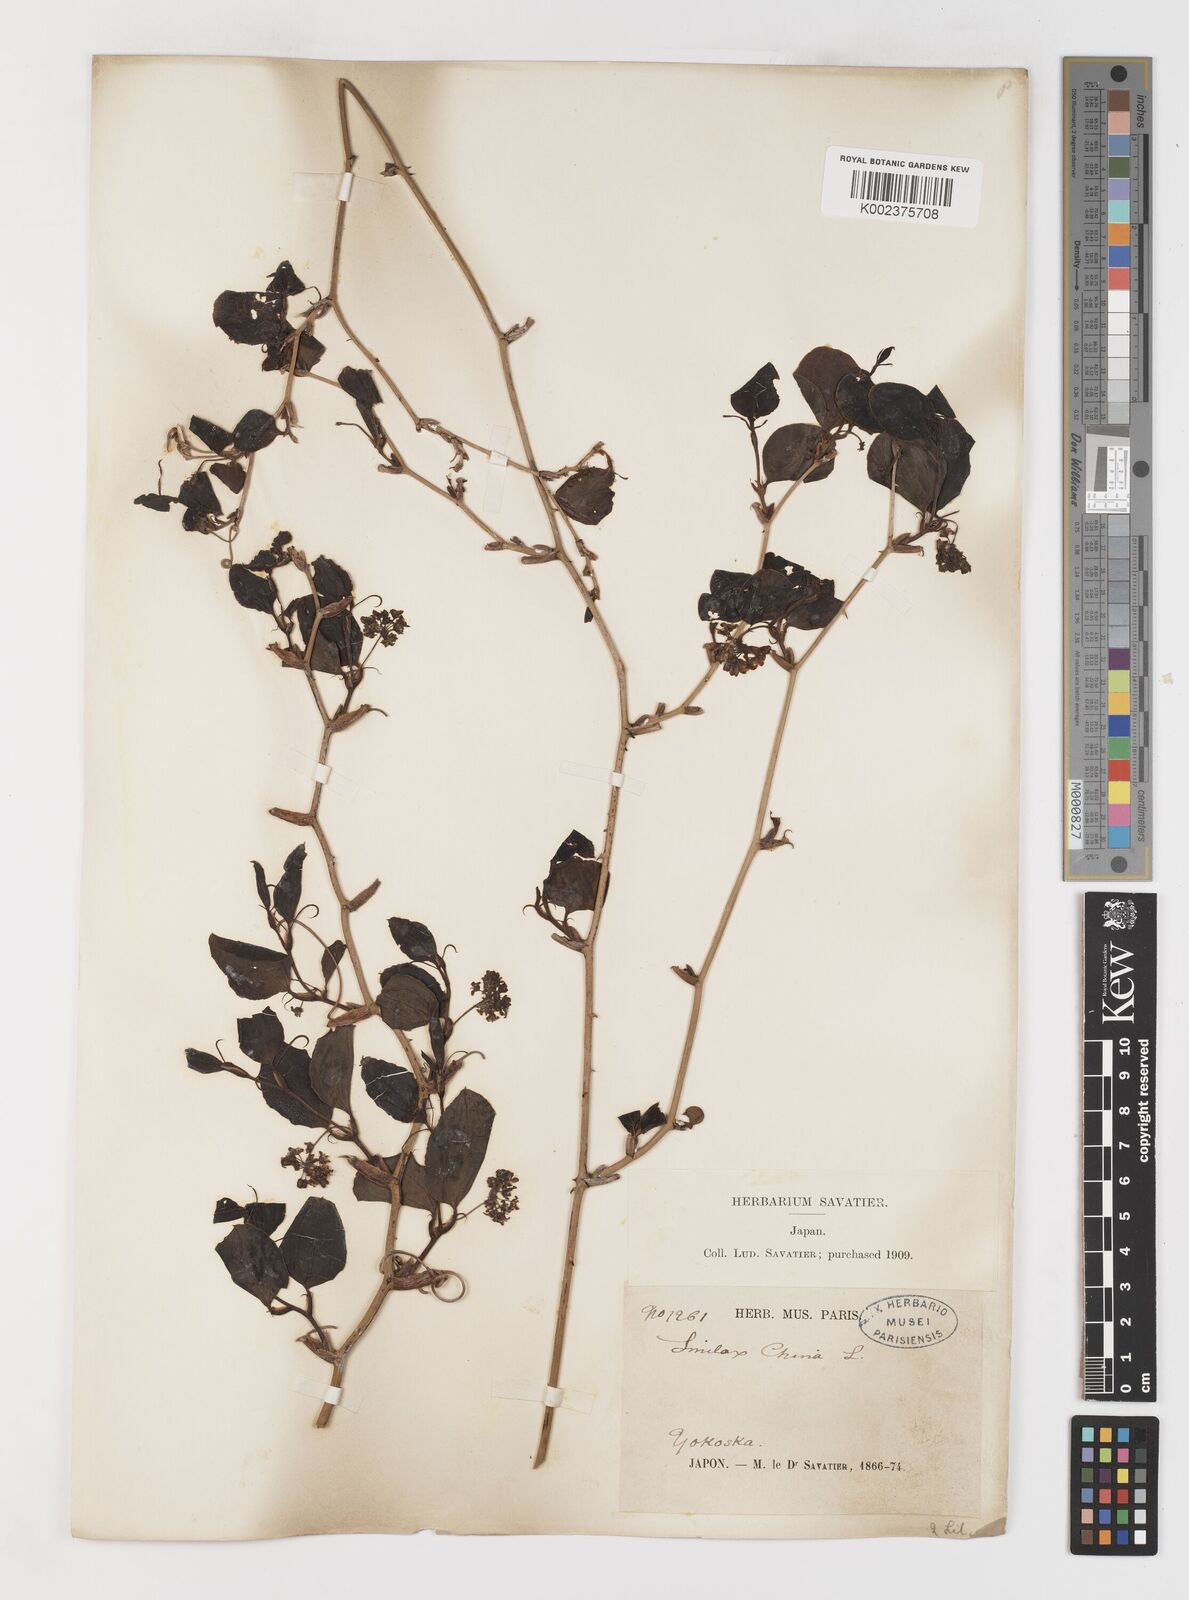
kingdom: Plantae
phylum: Tracheophyta
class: Liliopsida
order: Liliales
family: Smilacaceae
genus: Smilax
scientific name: Smilax china
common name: Chinaroot
